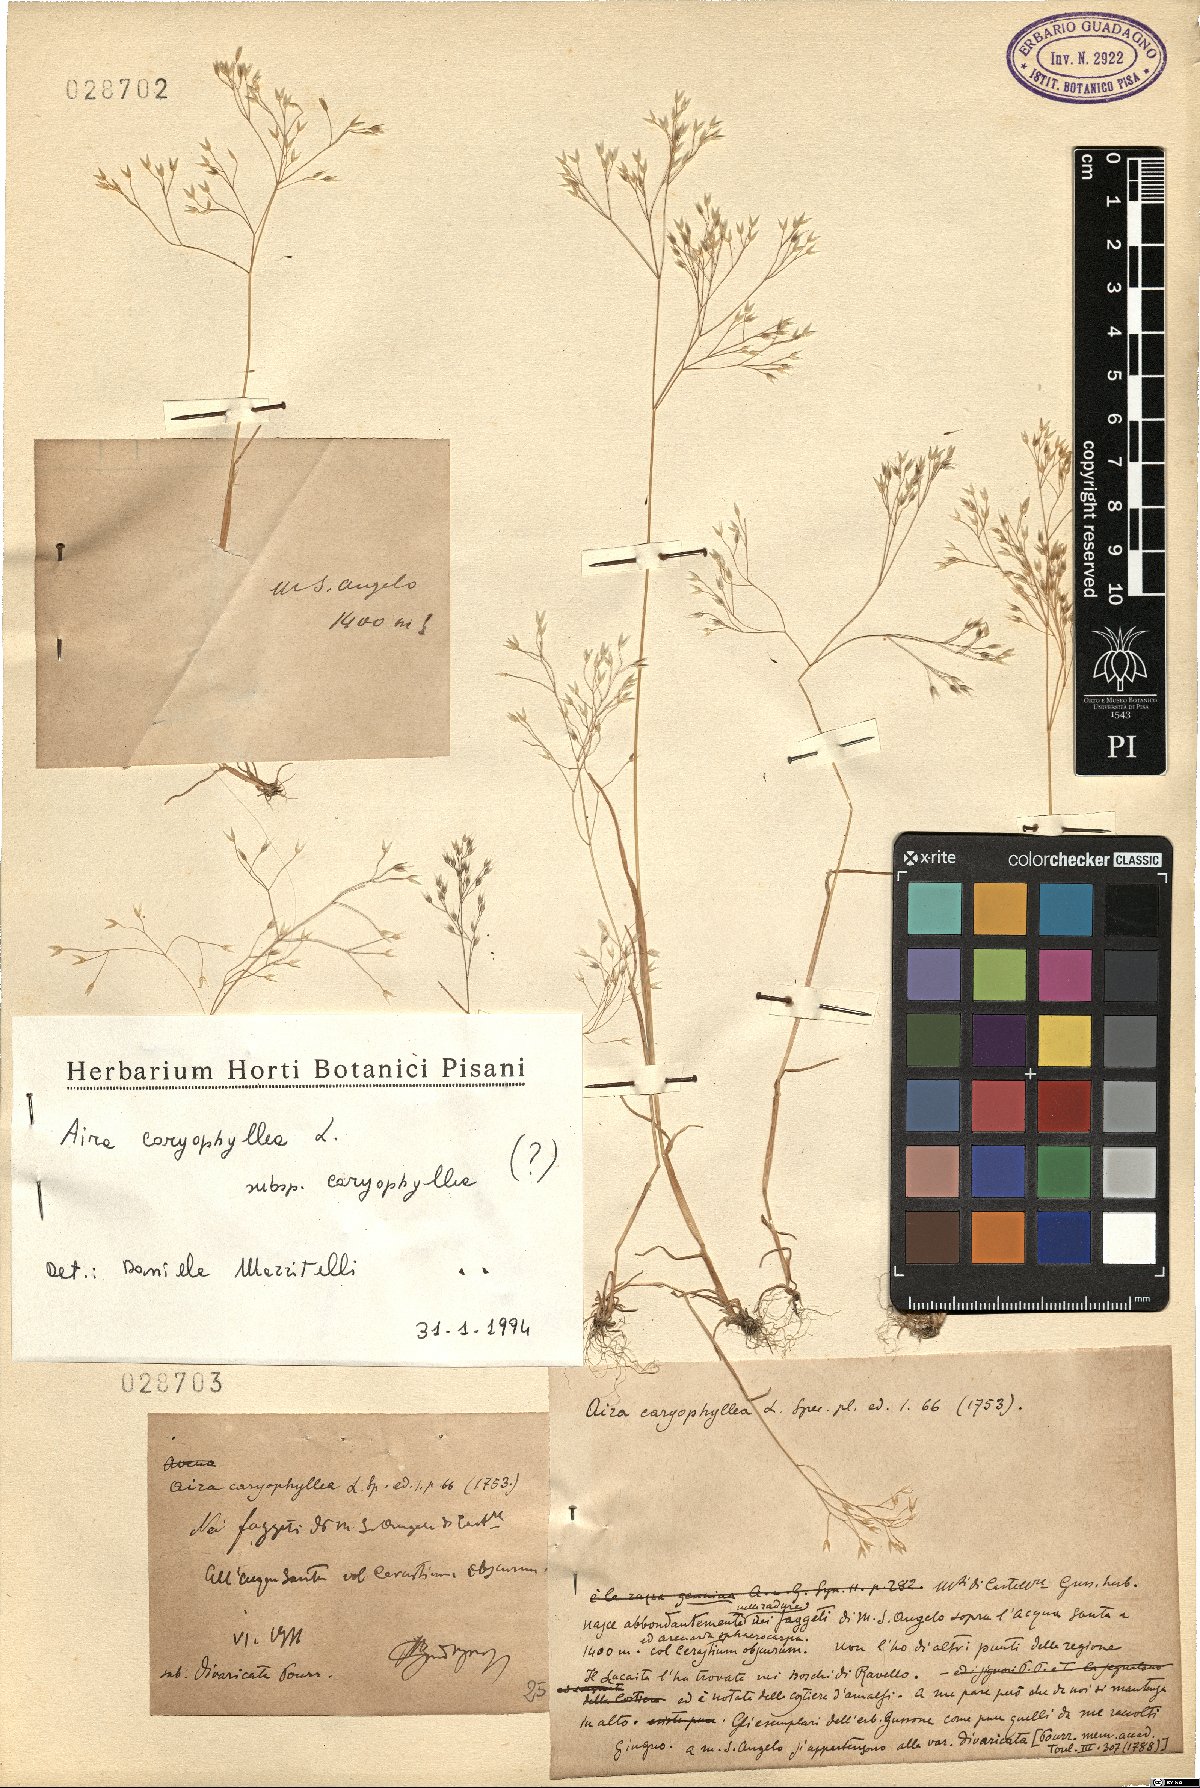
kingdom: Plantae
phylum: Tracheophyta
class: Liliopsida
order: Poales
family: Poaceae
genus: Aira
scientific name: Aira caryophyllea
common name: Silver hairgrass
